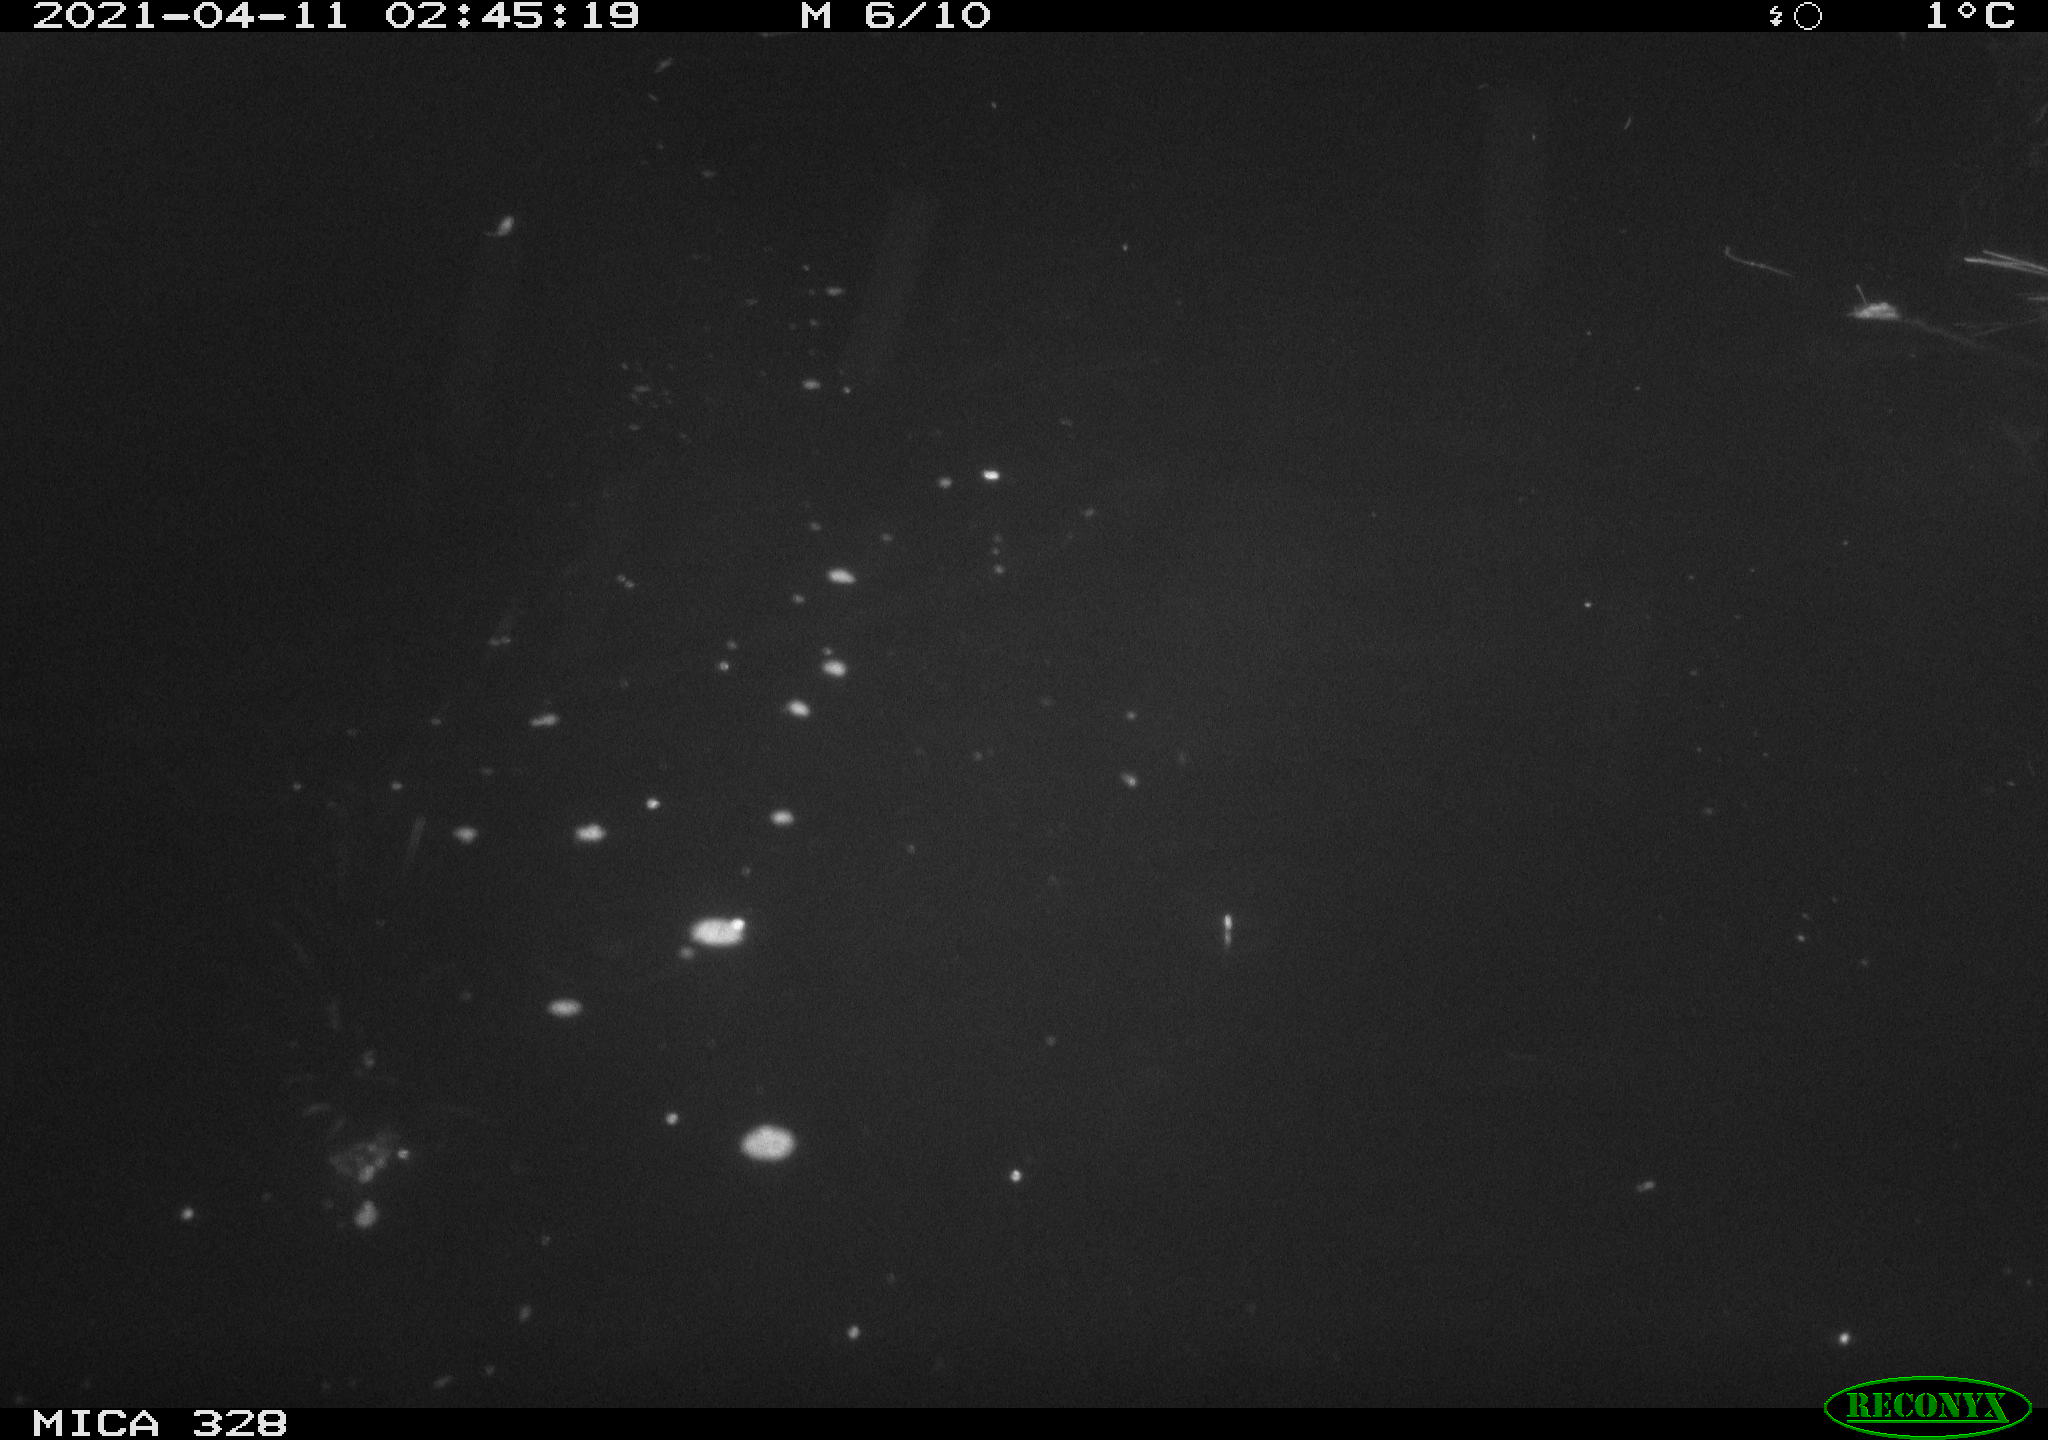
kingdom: Animalia
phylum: Chordata
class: Mammalia
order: Rodentia
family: Cricetidae
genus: Ondatra
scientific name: Ondatra zibethicus
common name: Muskrat
